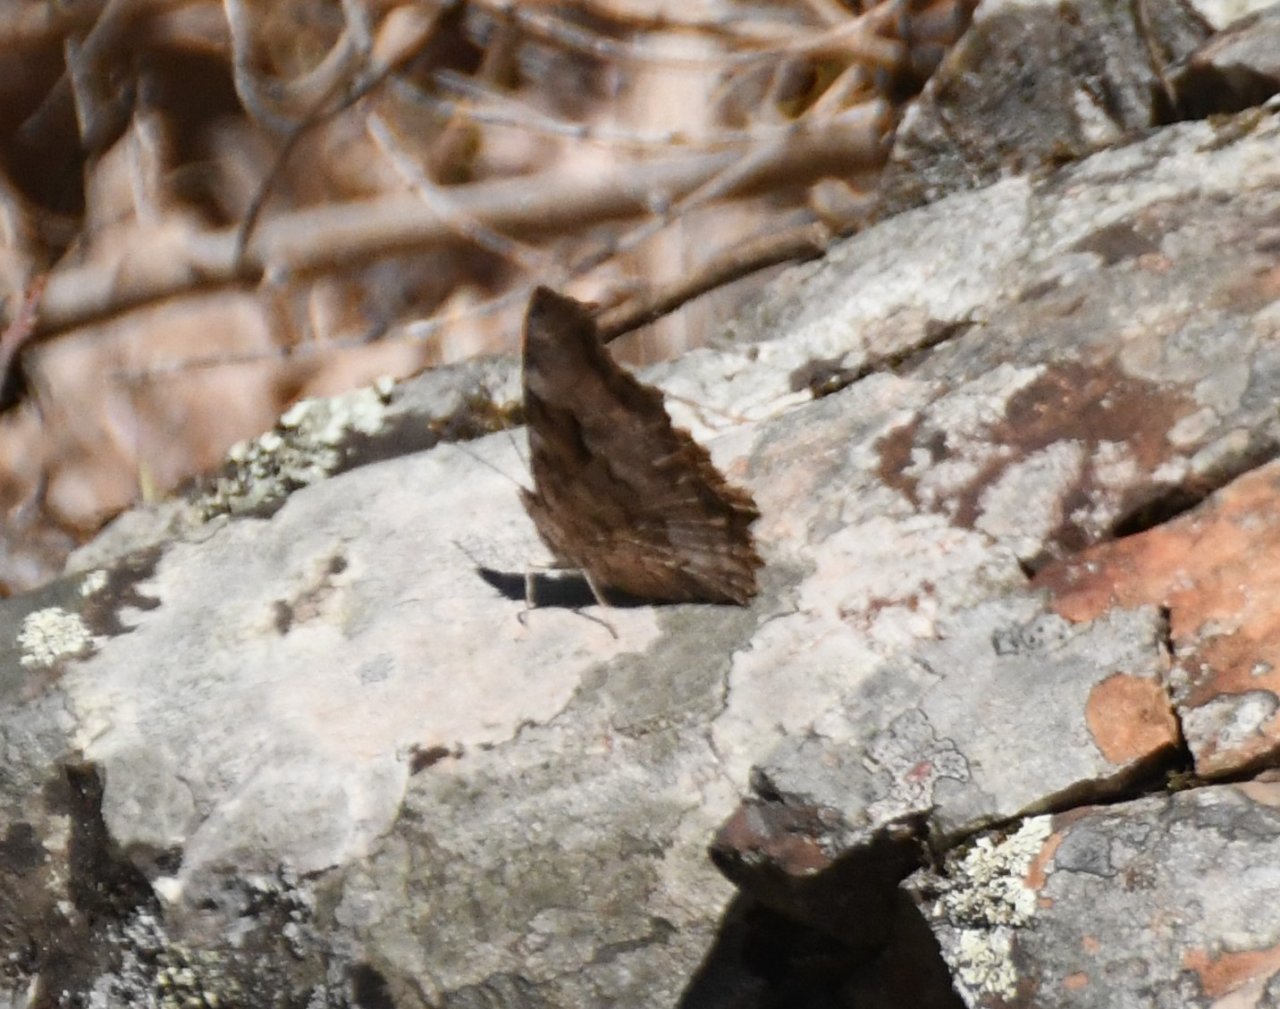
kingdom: Animalia
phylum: Arthropoda
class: Insecta
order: Lepidoptera
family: Nymphalidae
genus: Polygonia
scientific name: Polygonia vaualbum
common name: Compton Tortoiseshell
